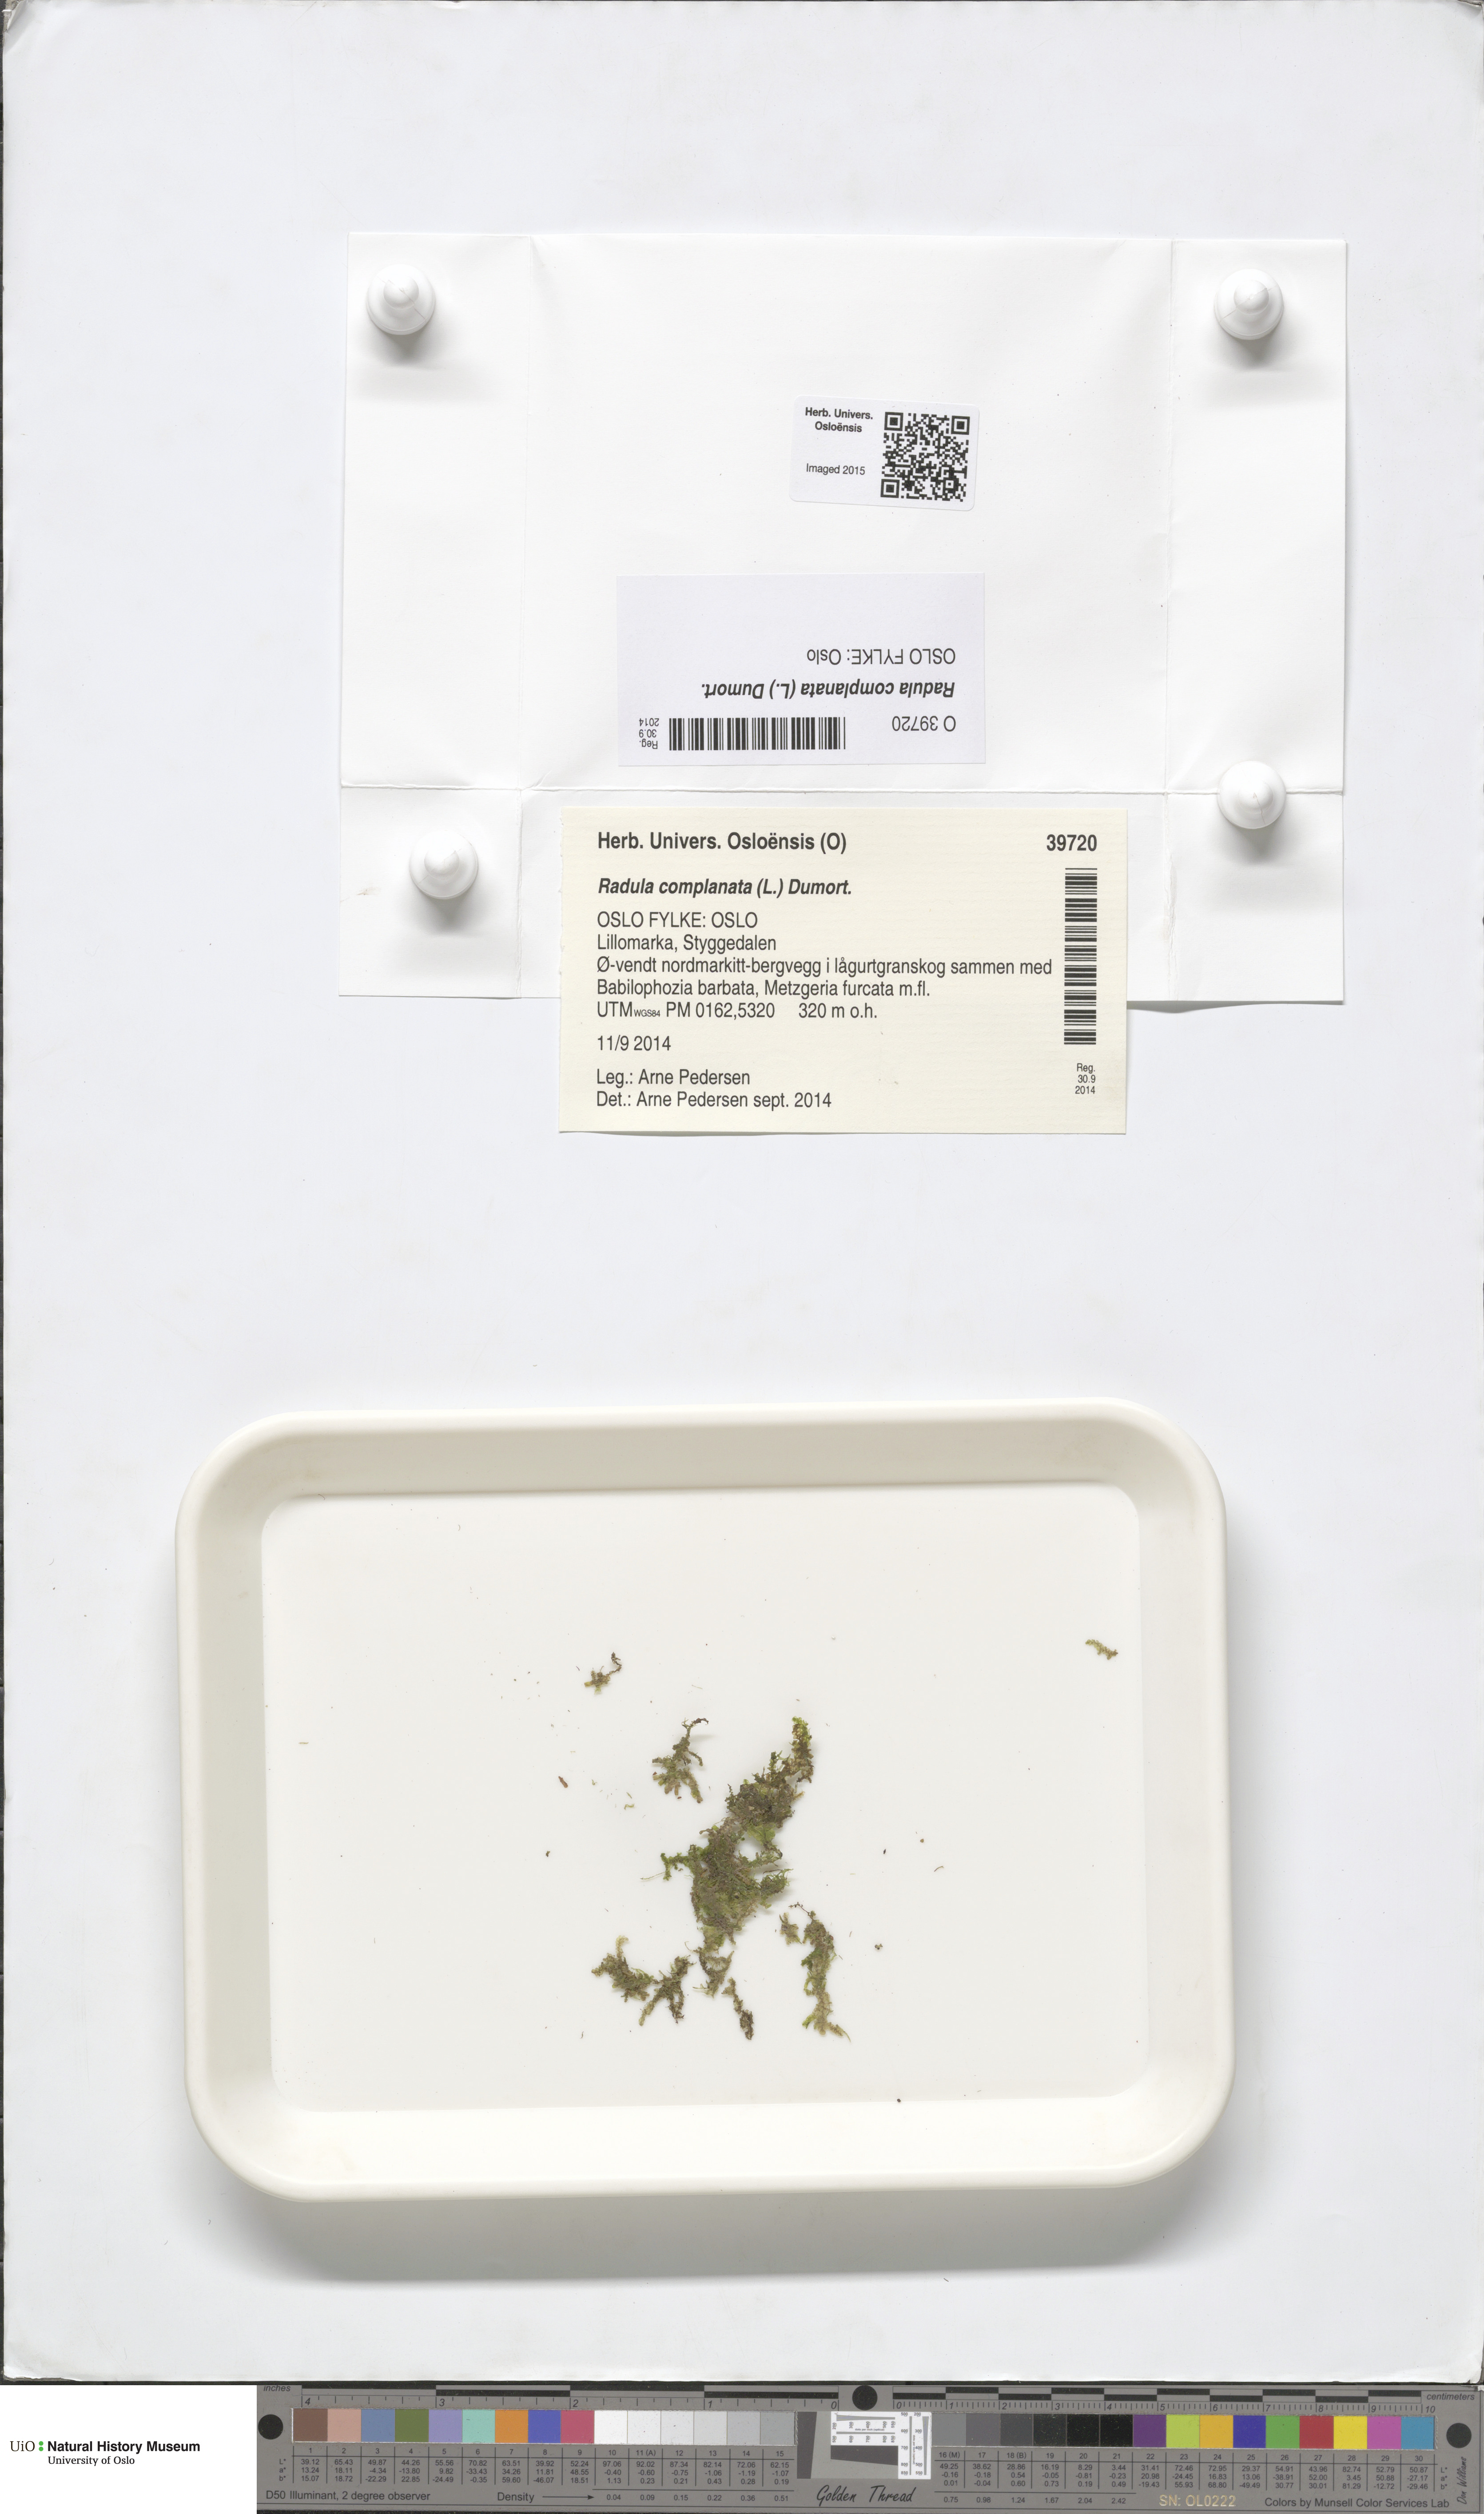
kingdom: Plantae
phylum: Marchantiophyta
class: Jungermanniopsida
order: Porellales
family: Radulaceae
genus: Radula
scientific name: Radula complanata
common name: Flat-leaved scalewort
